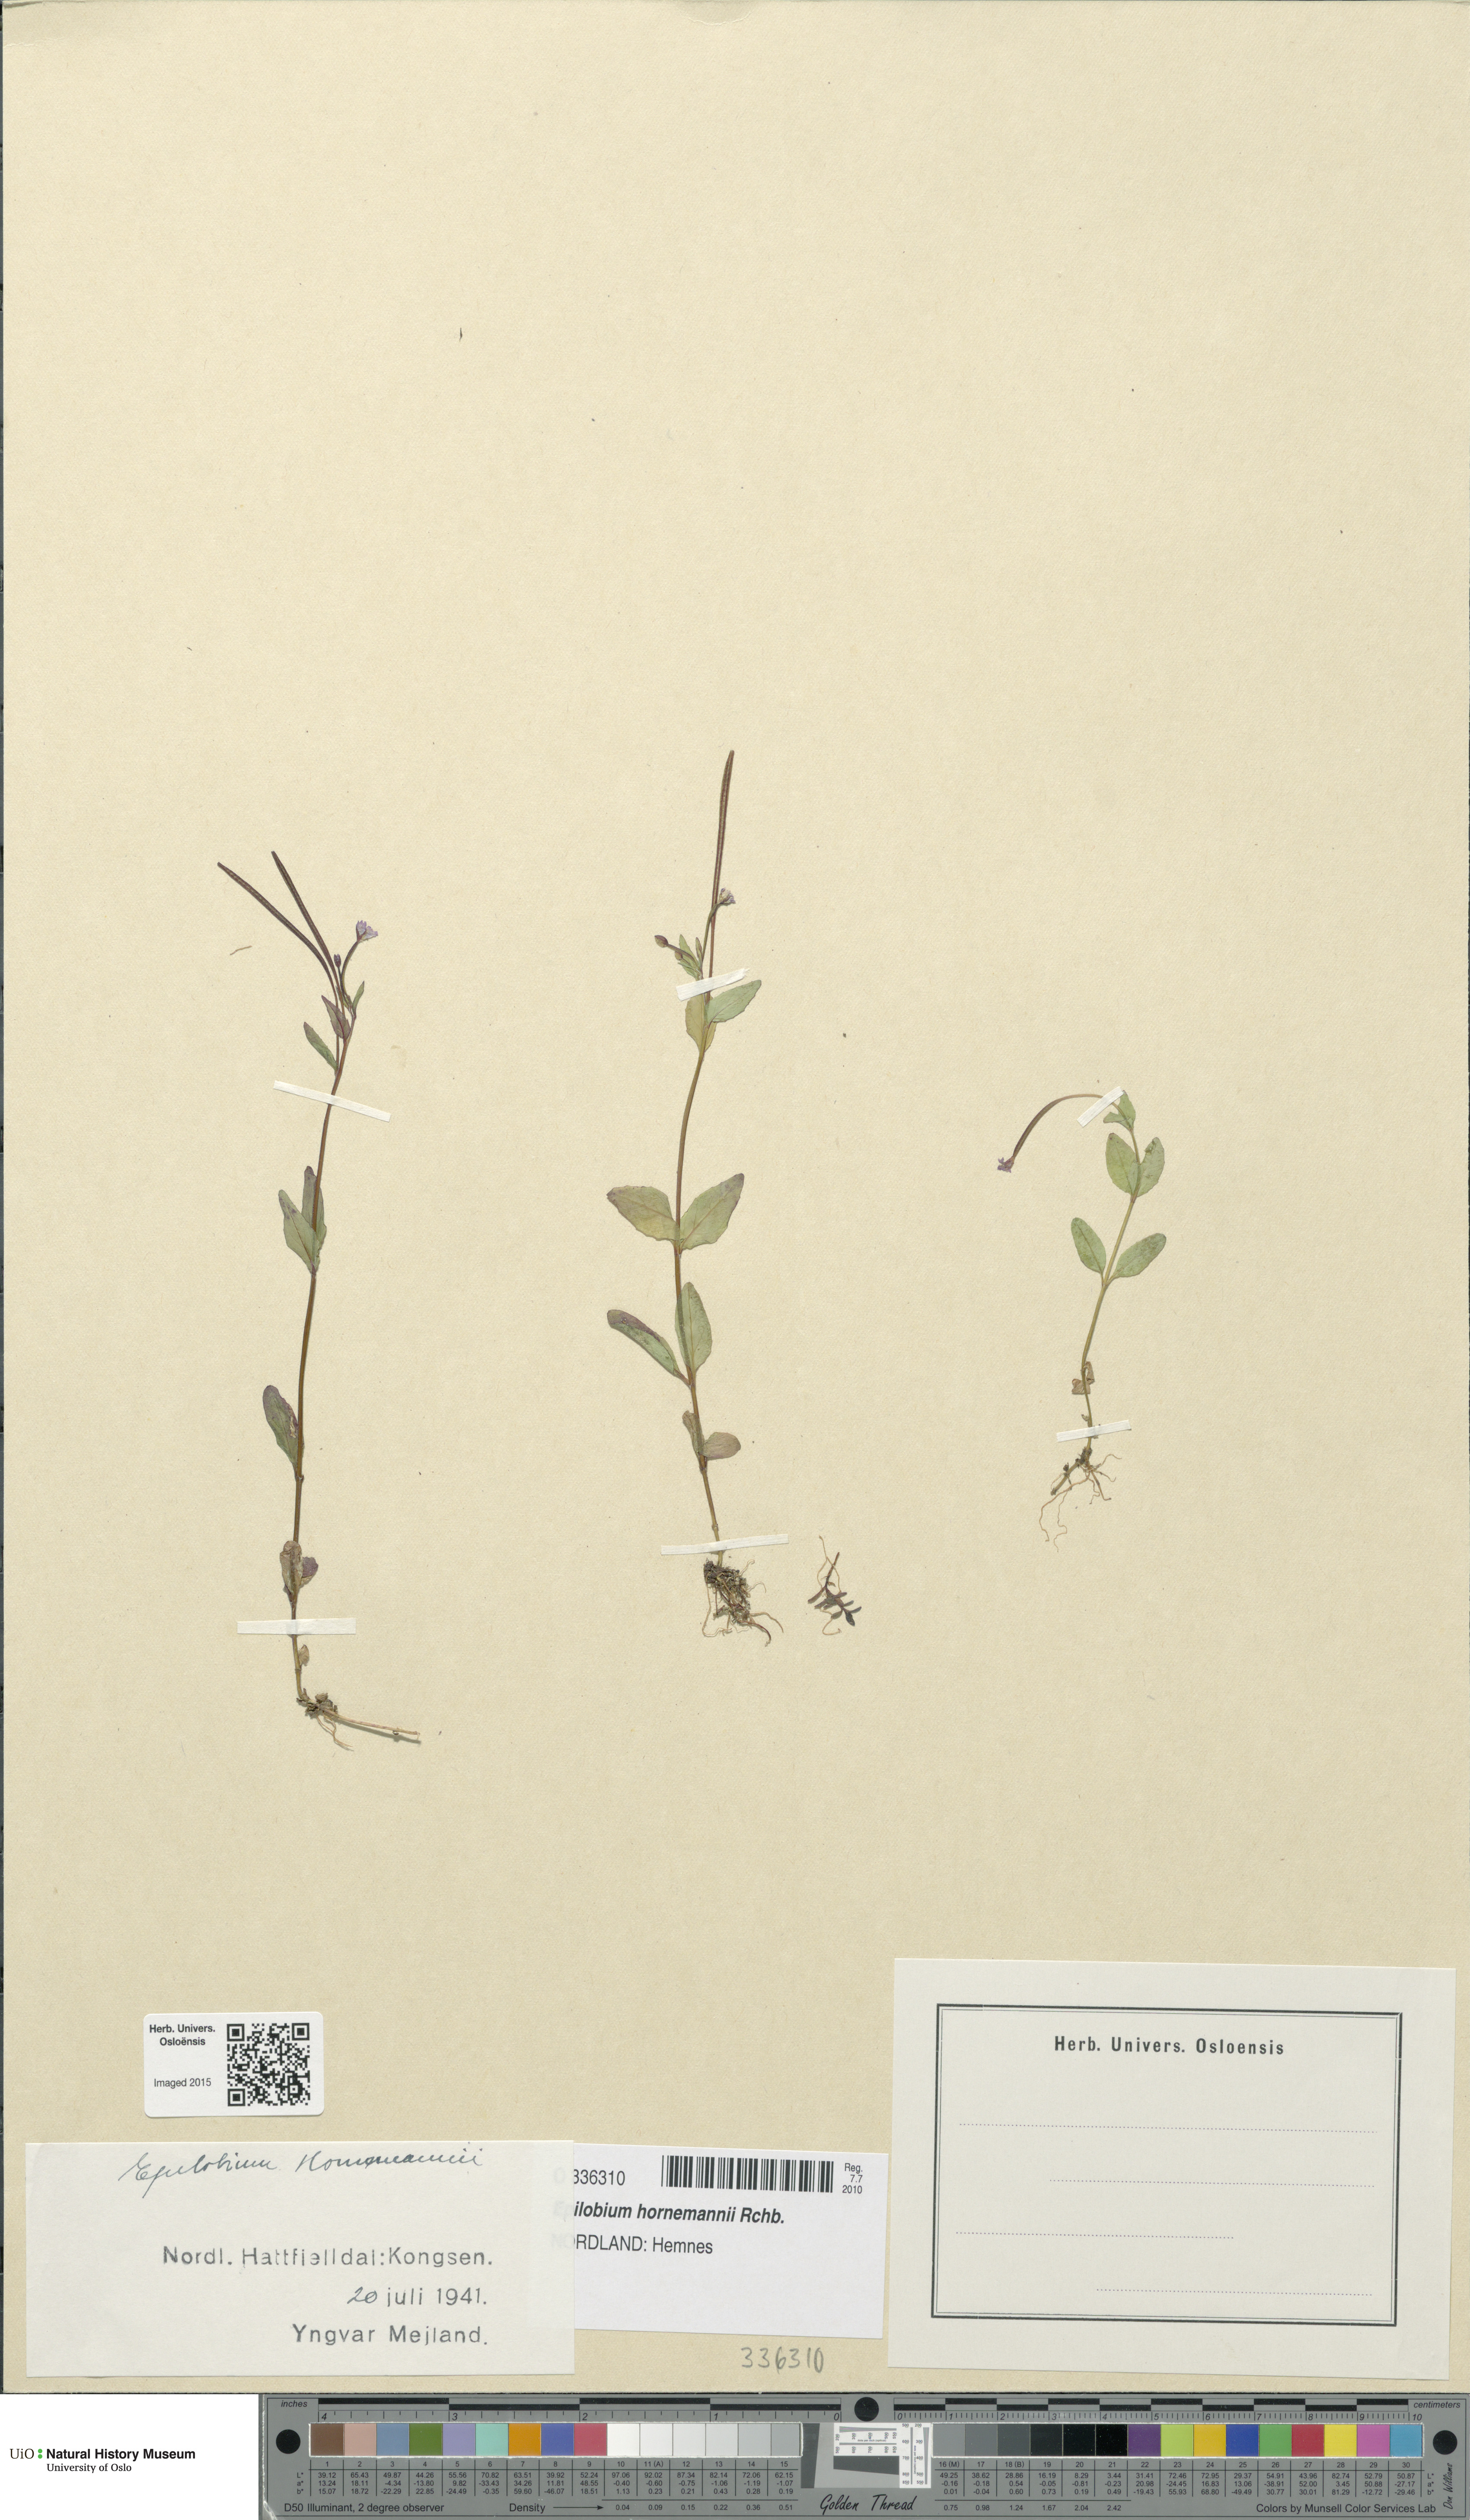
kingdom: Plantae
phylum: Tracheophyta
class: Magnoliopsida
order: Myrtales
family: Onagraceae
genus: Epilobium
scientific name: Epilobium hornemannii
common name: Hornemann's willowherb
